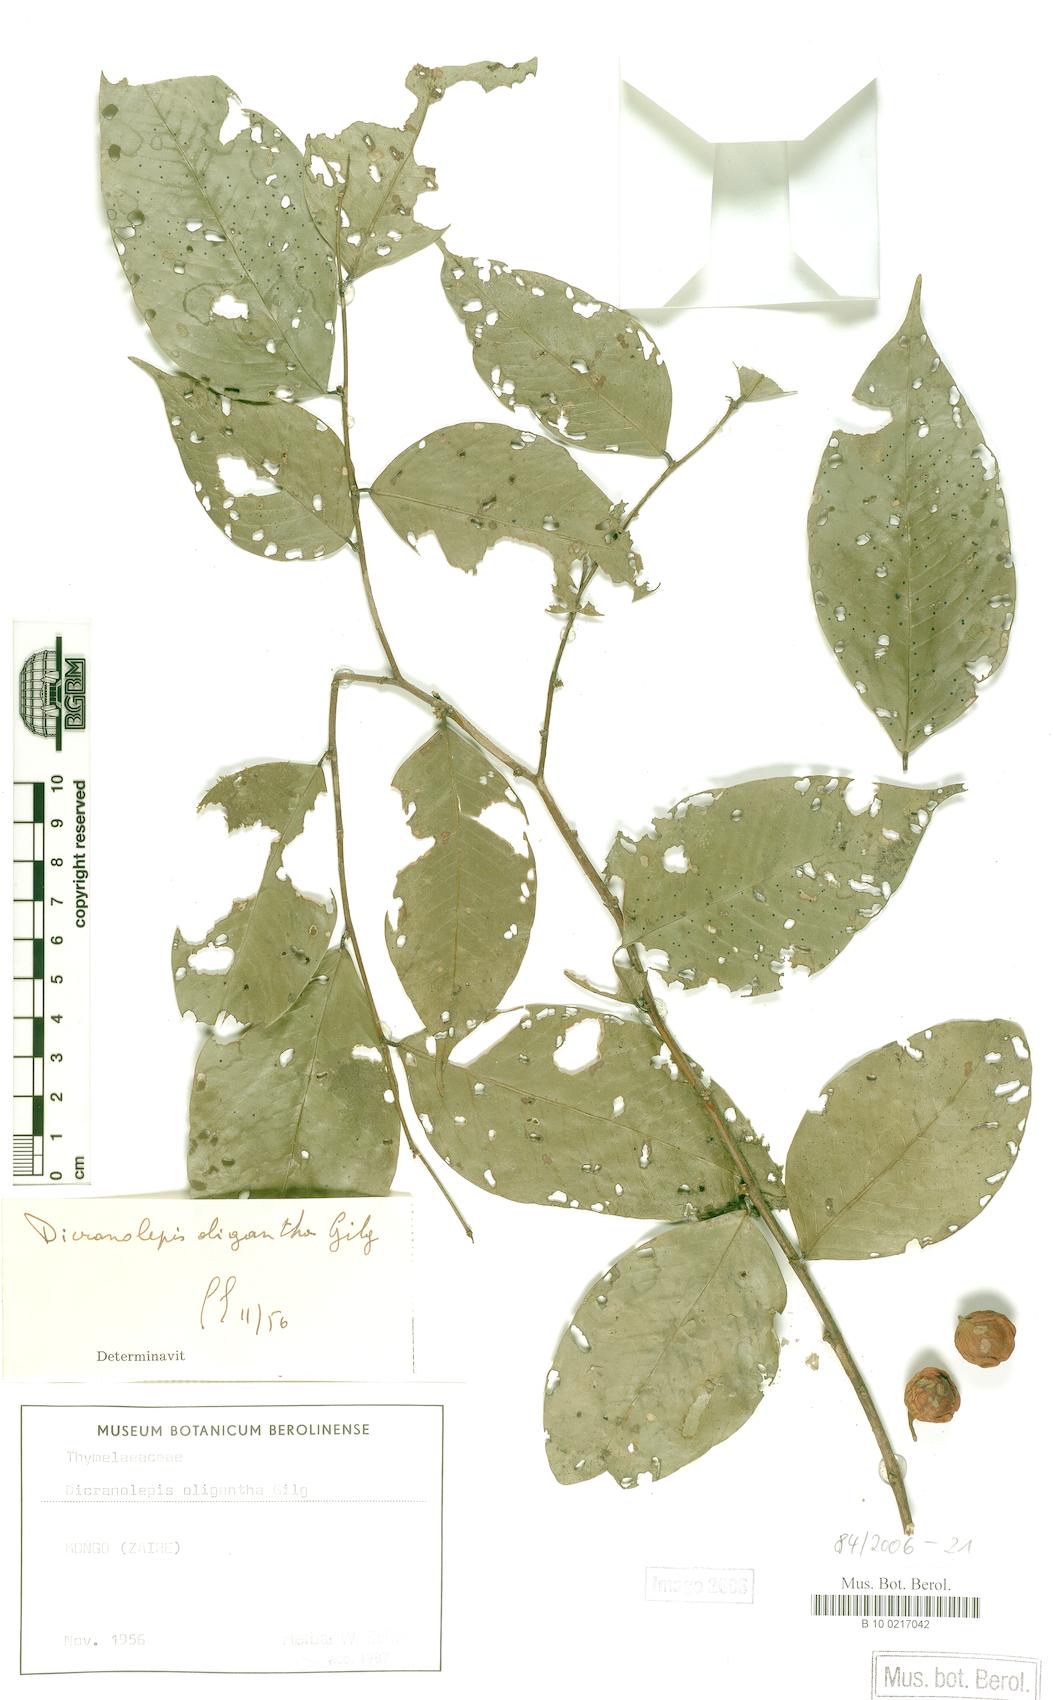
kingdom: Plantae
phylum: Tracheophyta
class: Magnoliopsida
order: Malvales
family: Thymelaeaceae
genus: Dicranolepis
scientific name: Dicranolepis buchholzii
